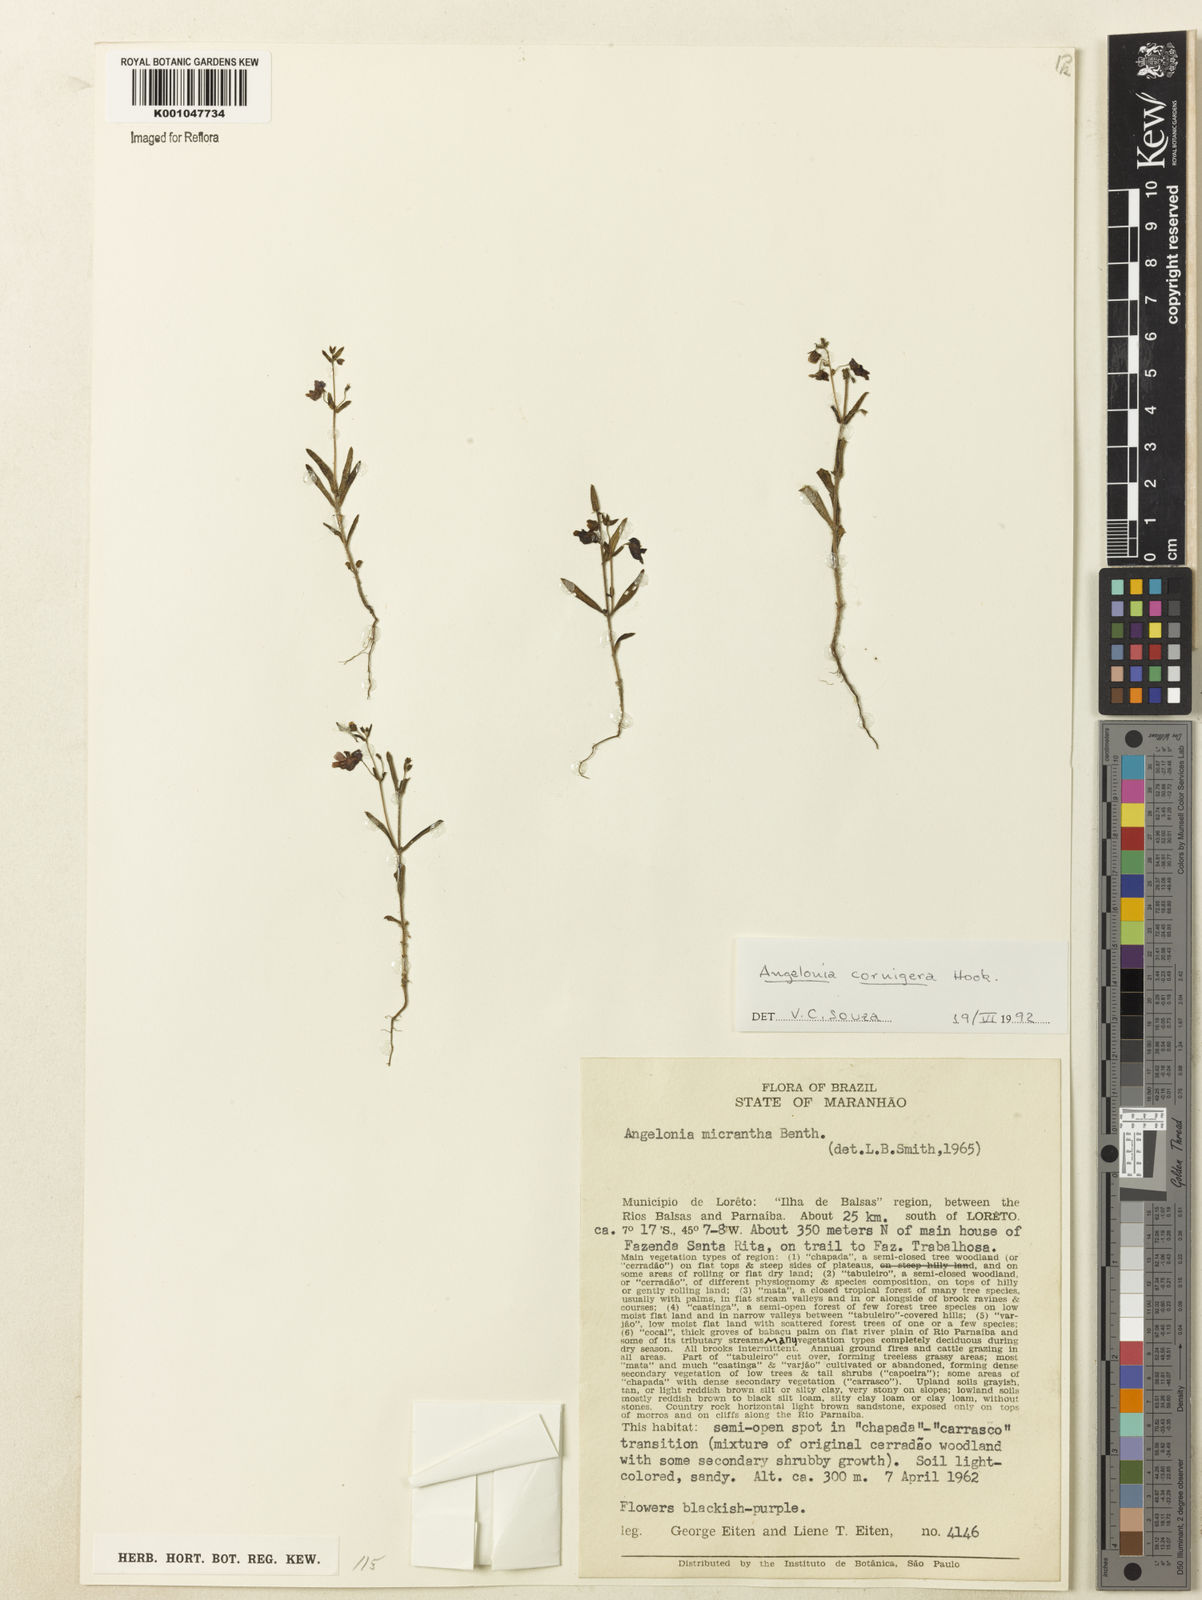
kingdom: Plantae
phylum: Tracheophyta
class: Magnoliopsida
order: Lamiales
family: Plantaginaceae
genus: Angelonia
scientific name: Angelonia cornigera
